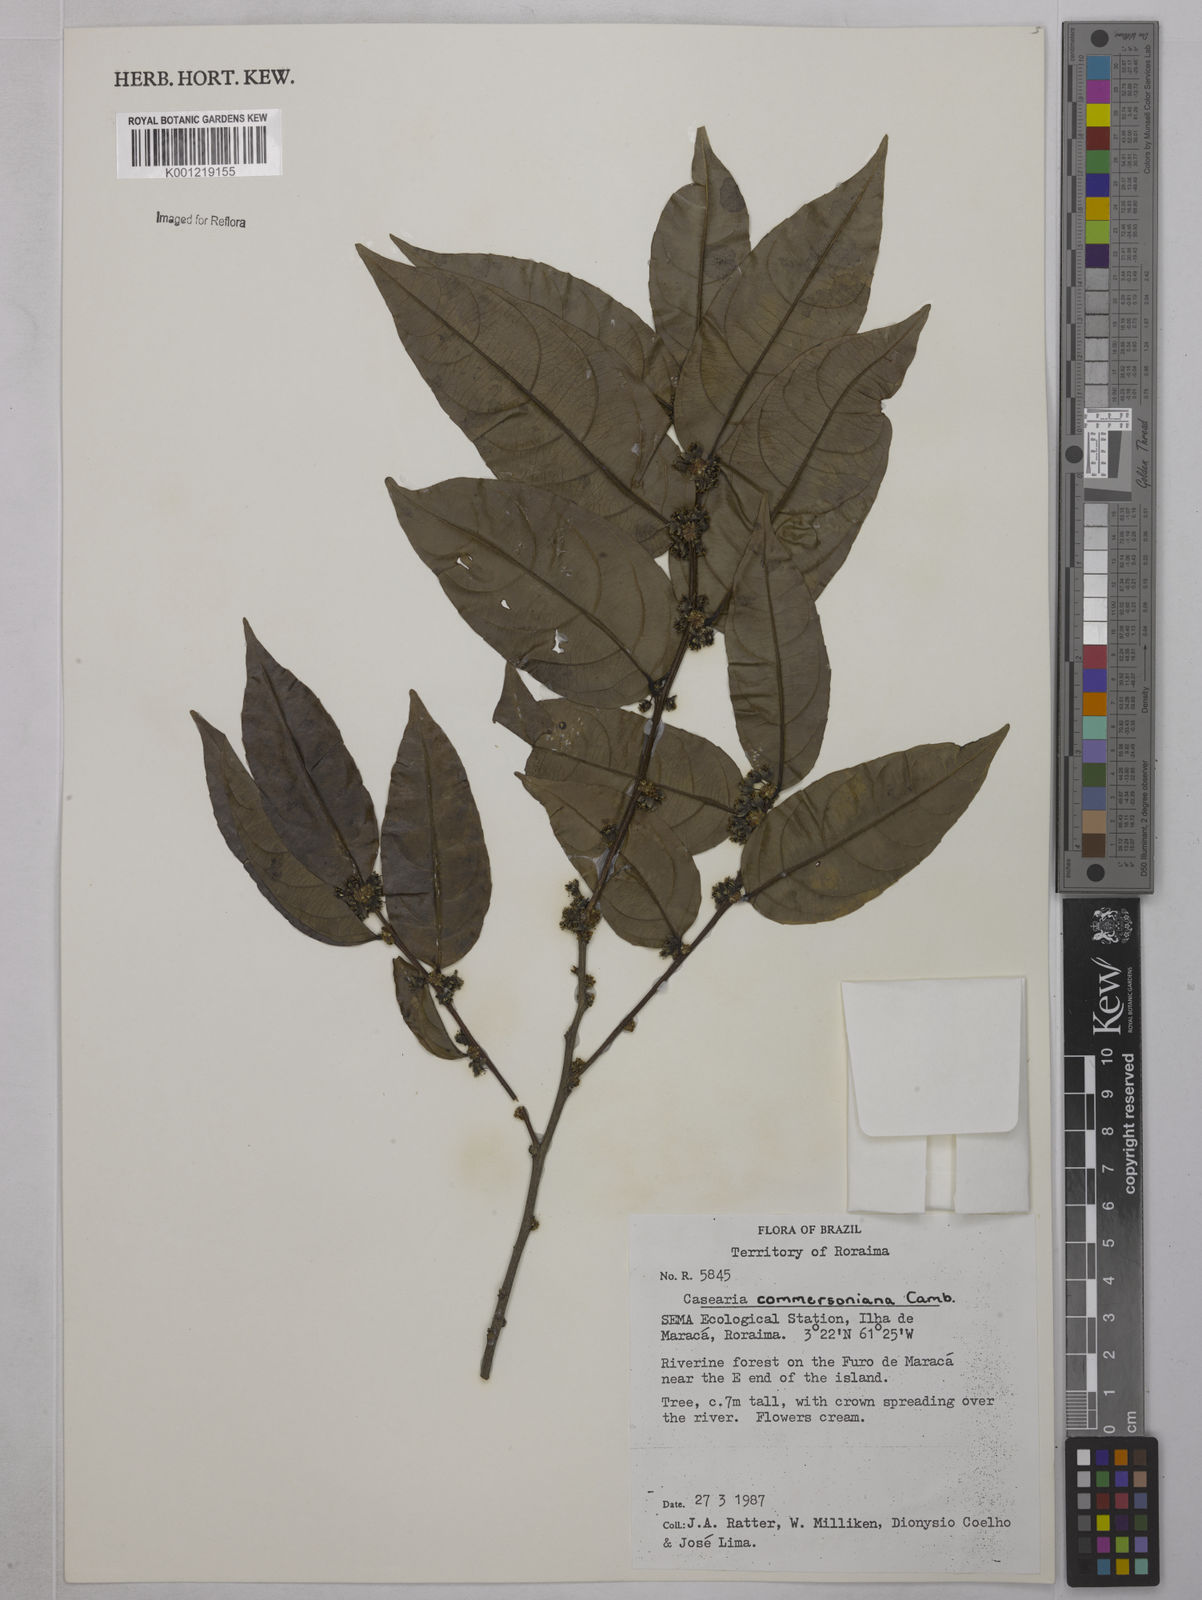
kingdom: Plantae
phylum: Tracheophyta
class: Magnoliopsida
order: Malpighiales
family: Salicaceae
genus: Piparea
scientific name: Piparea dentata
